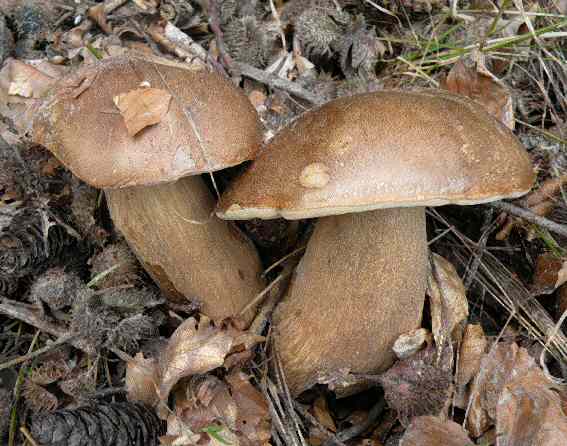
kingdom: Fungi
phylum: Basidiomycota
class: Agaricomycetes
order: Boletales
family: Boletaceae
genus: Boletus
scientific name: Boletus reticulatus
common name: sommer-rørhat
